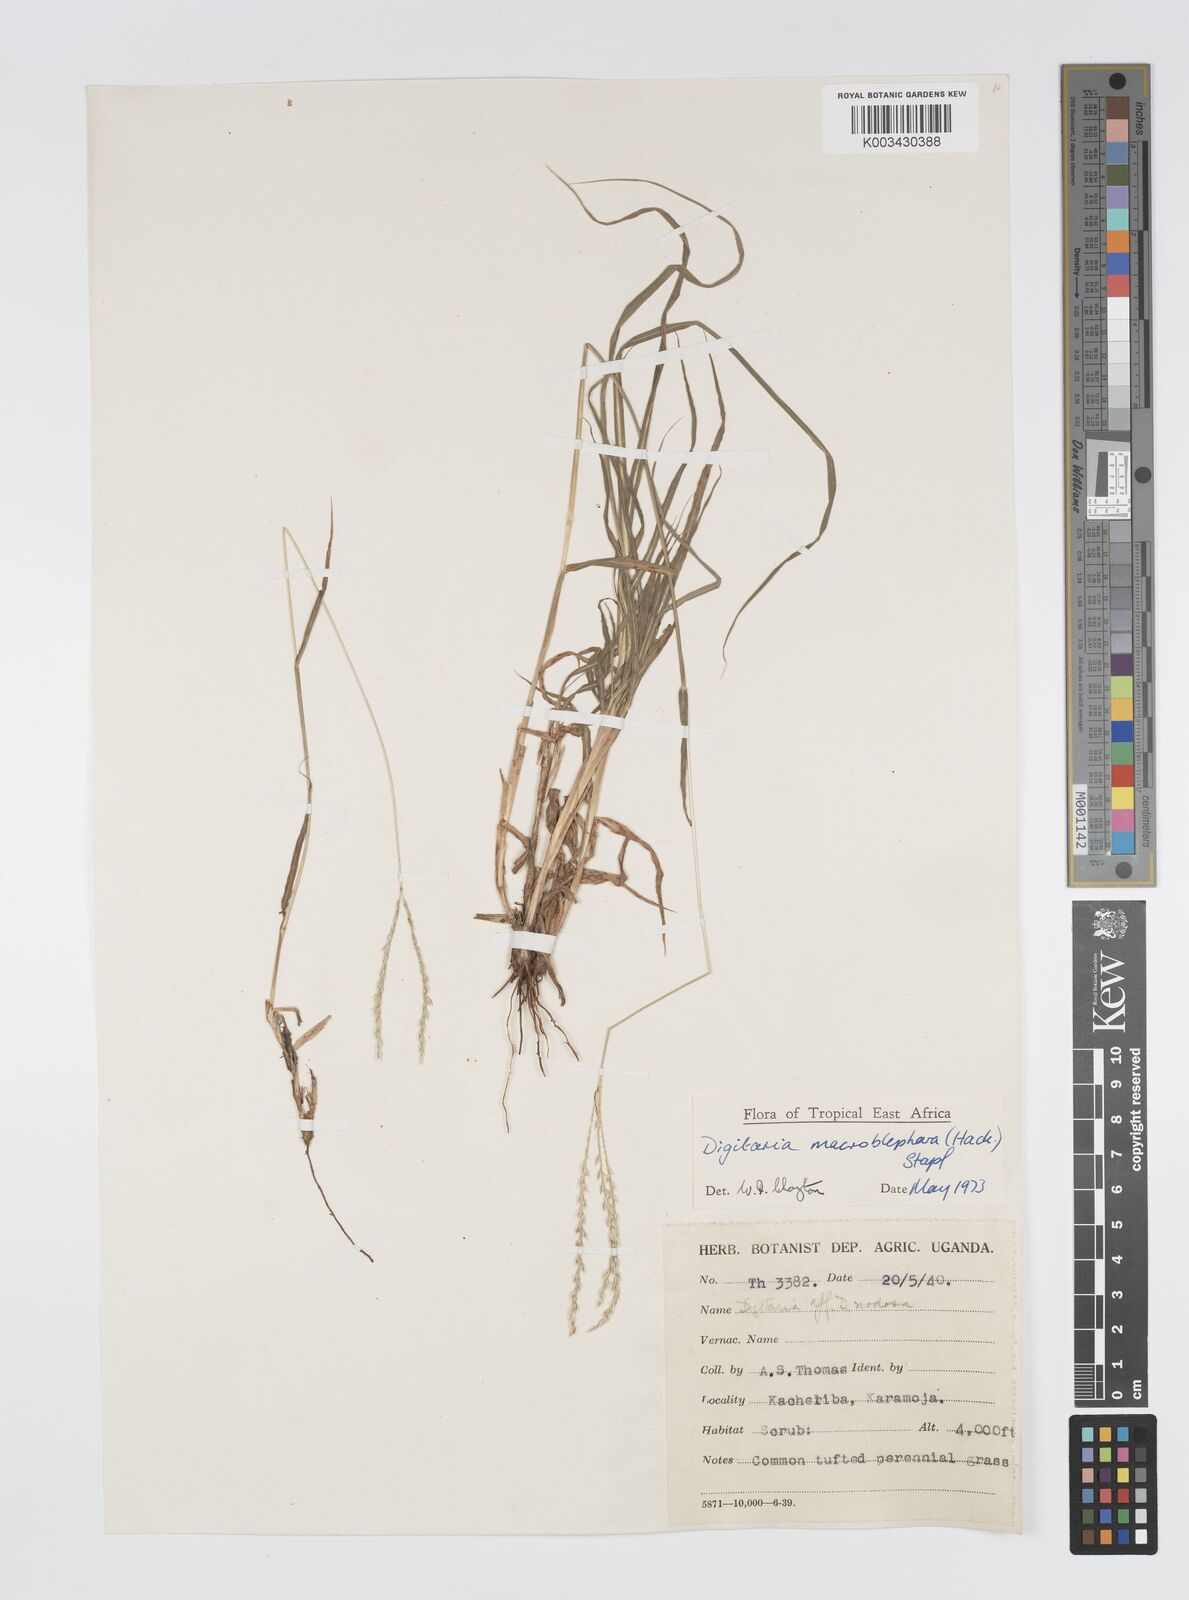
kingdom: Plantae
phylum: Tracheophyta
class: Liliopsida
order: Poales
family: Poaceae
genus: Digitaria
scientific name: Digitaria macroblephara
